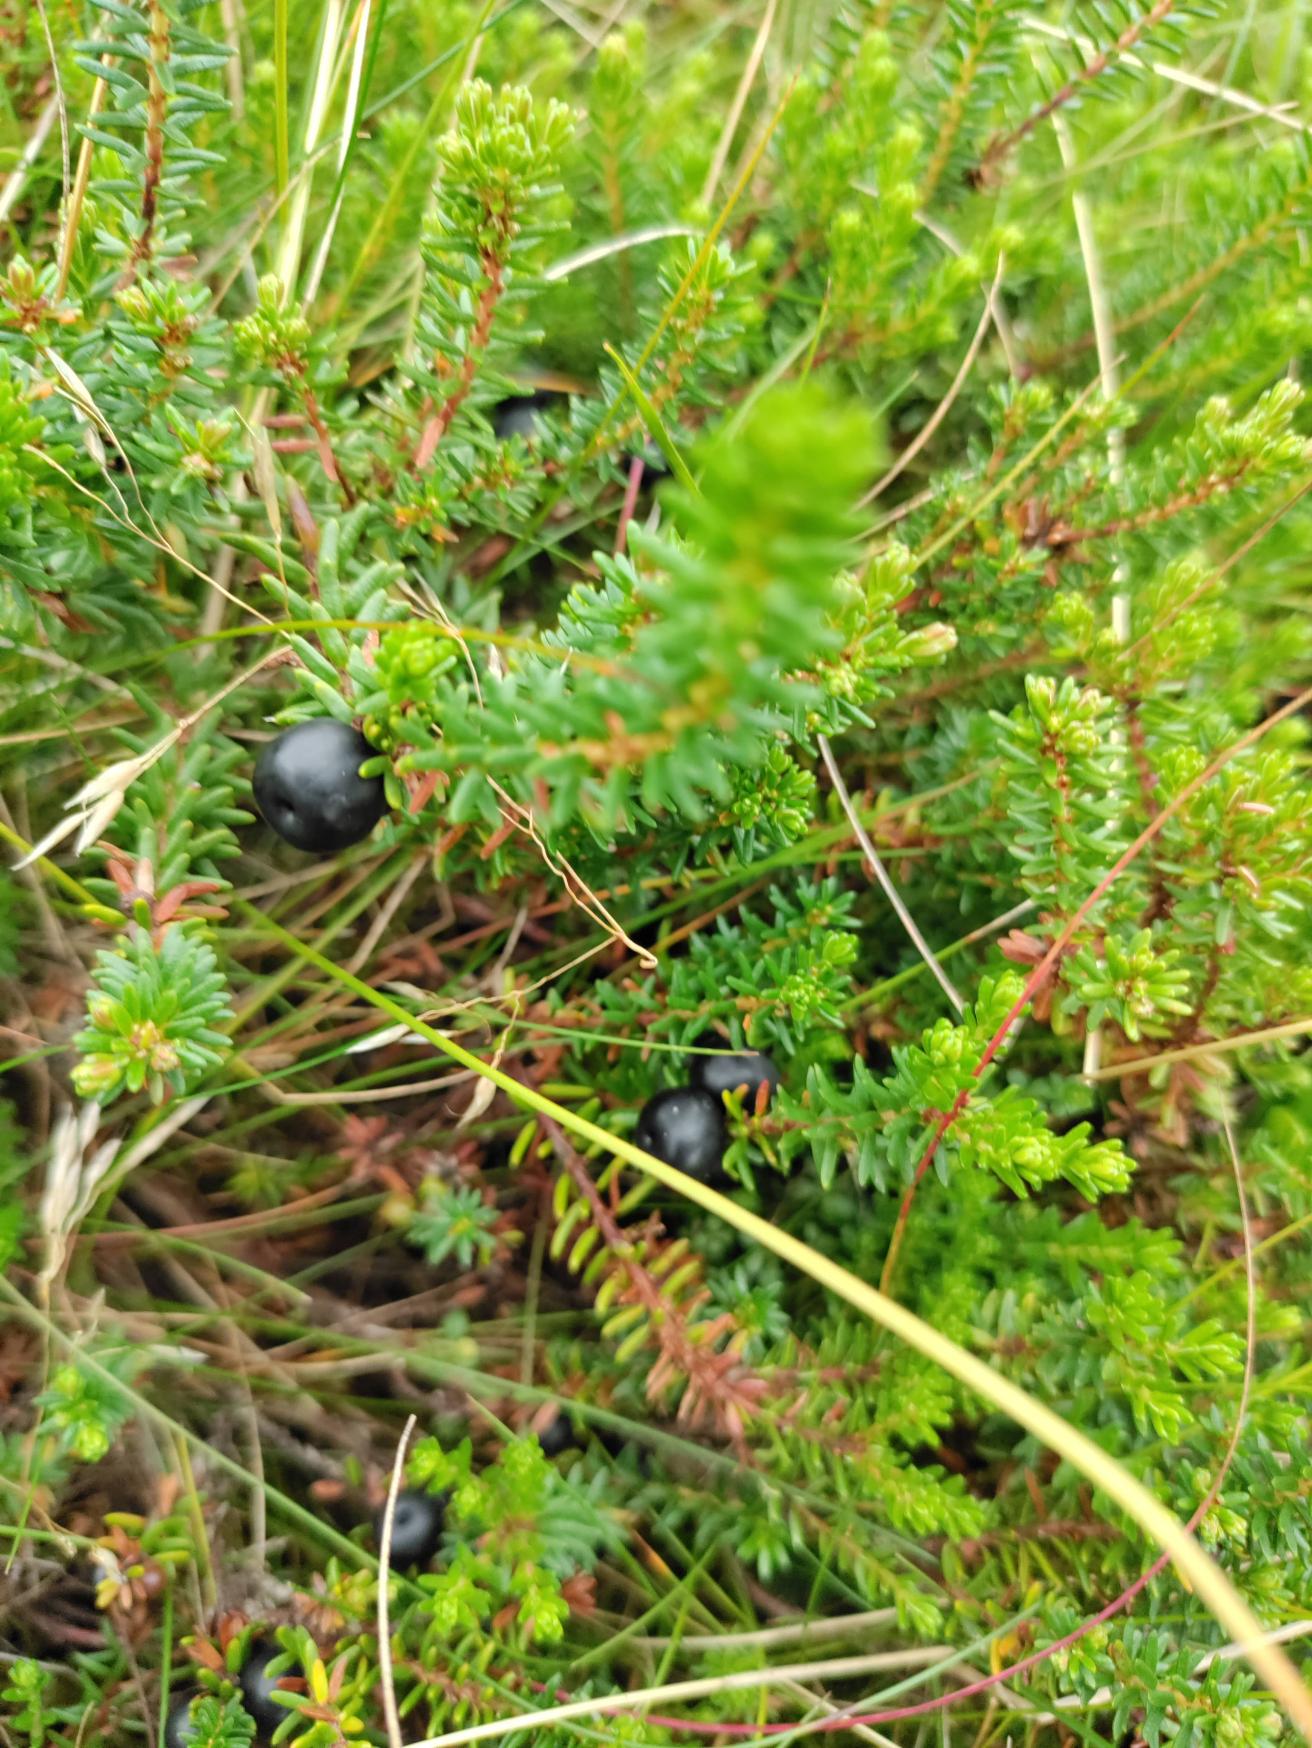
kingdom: Plantae
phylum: Tracheophyta
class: Magnoliopsida
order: Ericales
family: Ericaceae
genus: Empetrum
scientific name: Empetrum nigrum
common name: Revling
